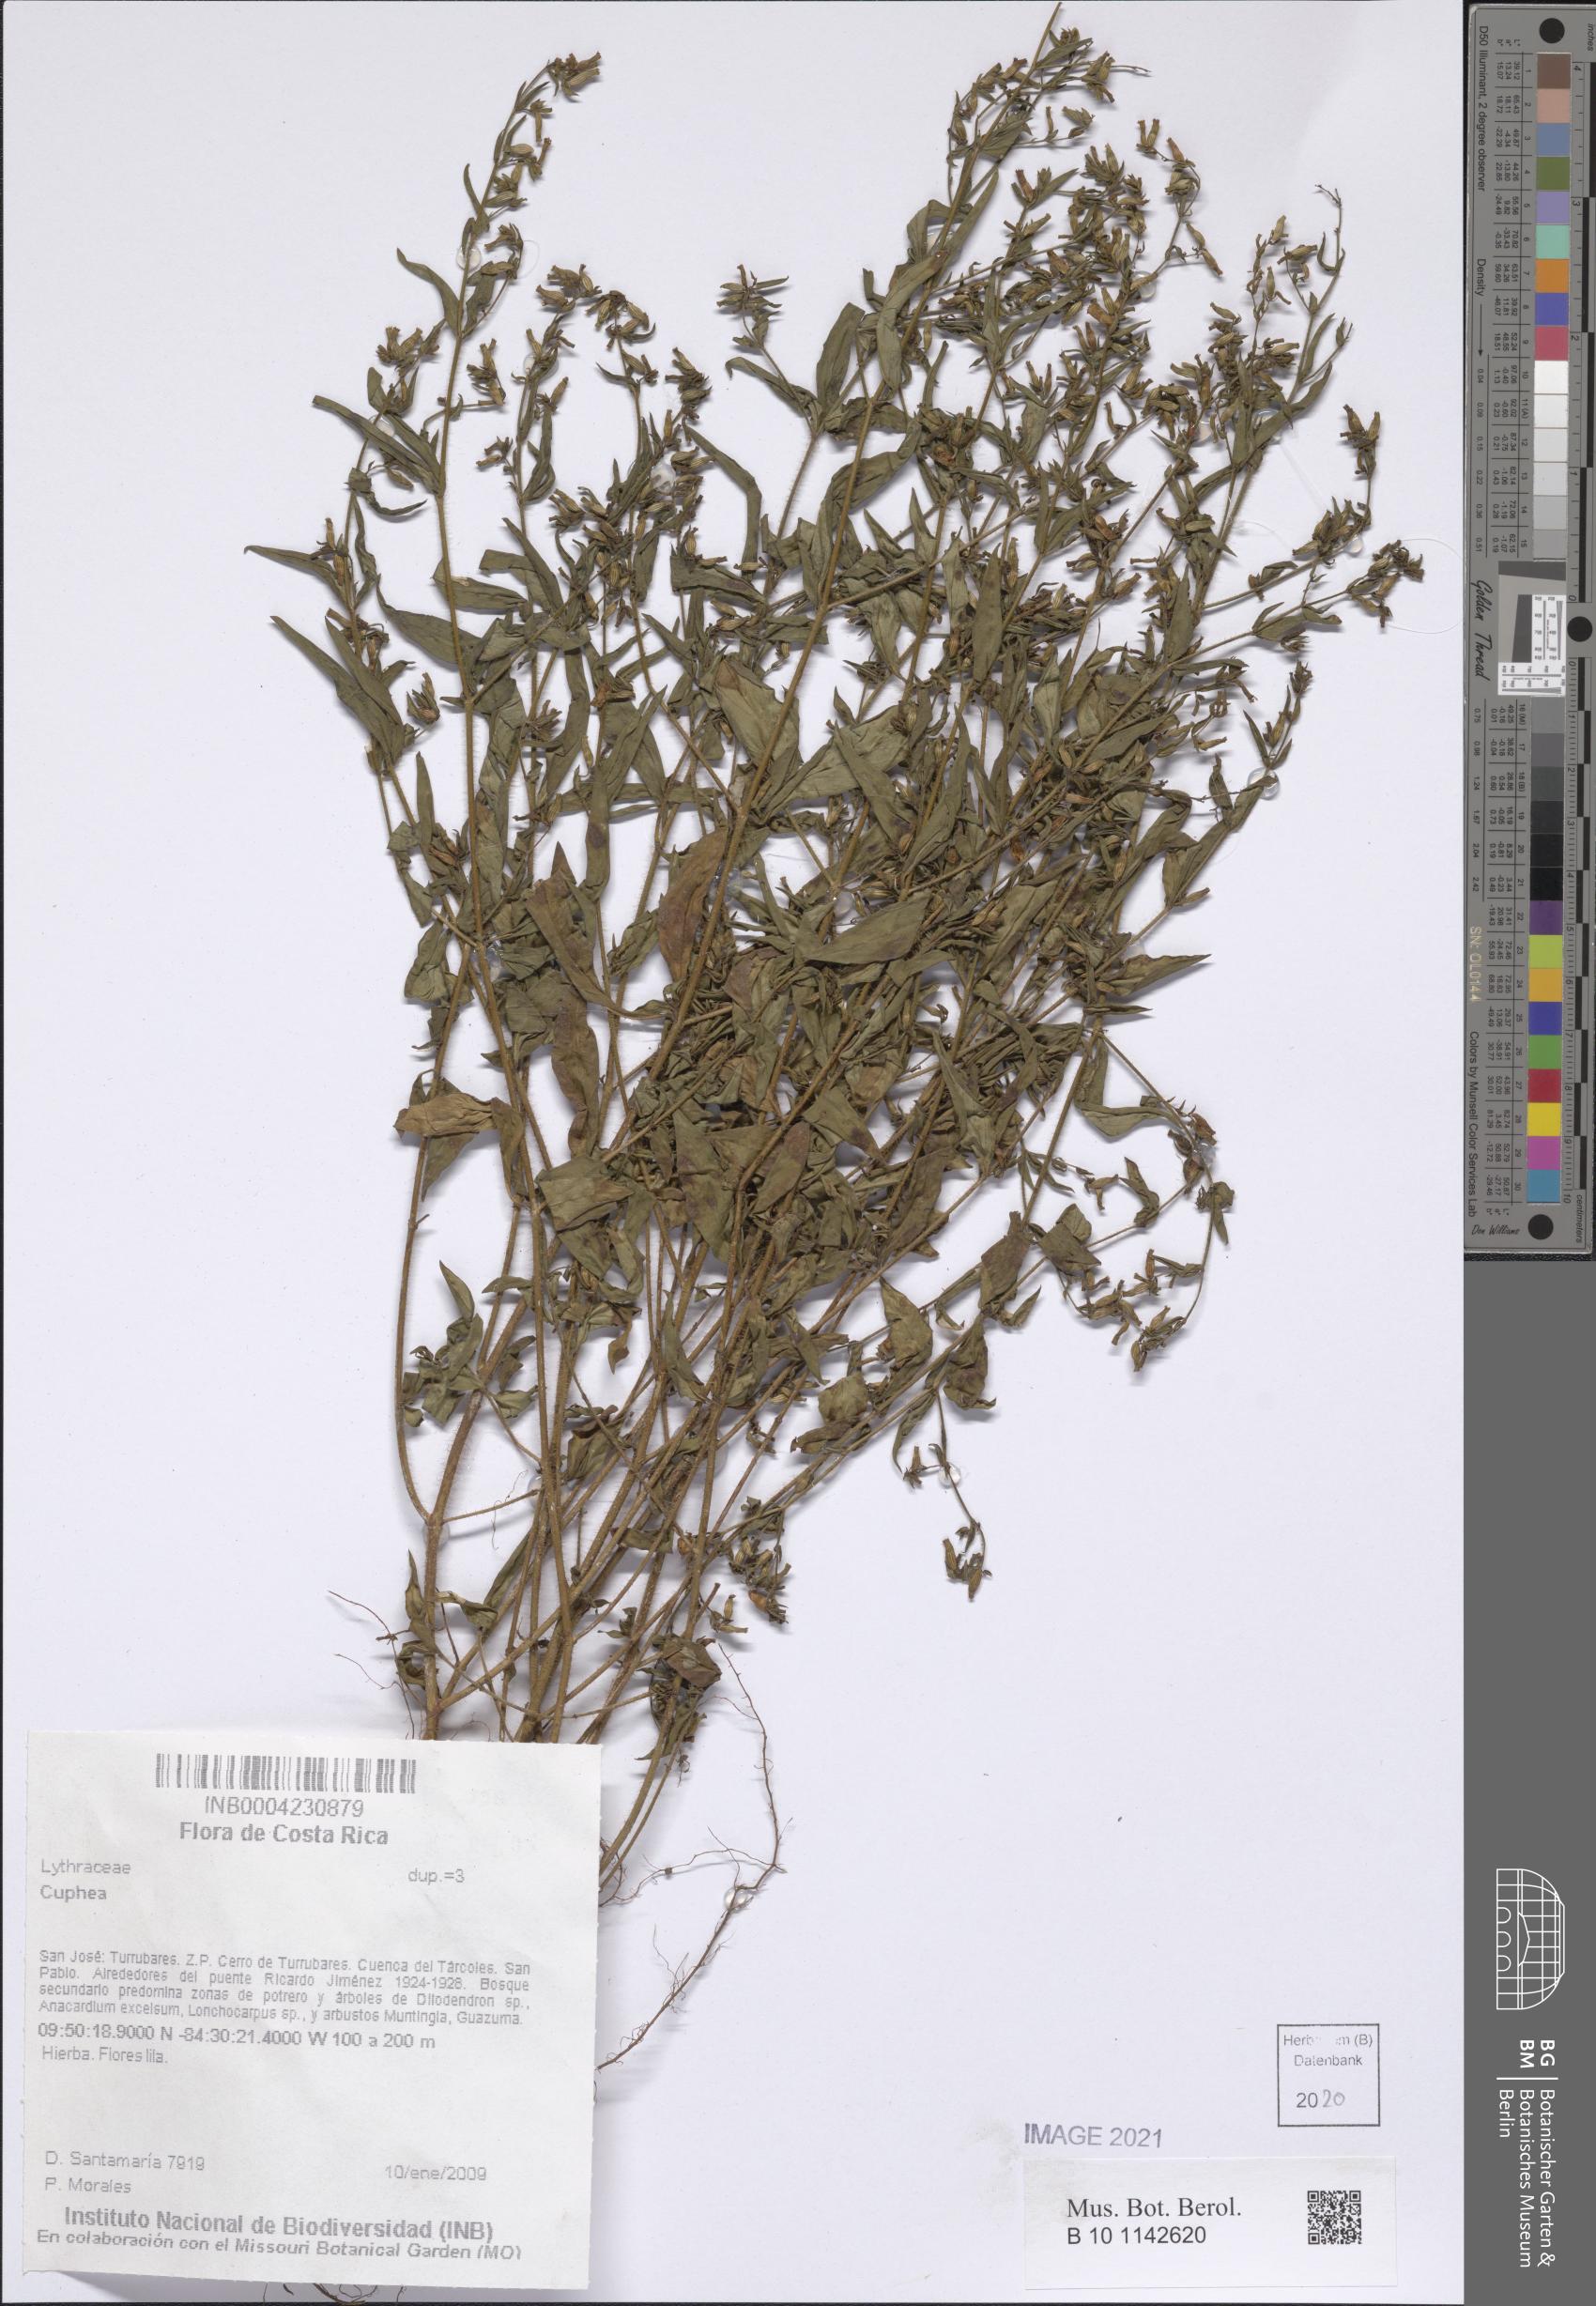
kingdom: Plantae
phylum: Tracheophyta
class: Magnoliopsida
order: Myrtales
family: Lythraceae
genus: Cuphea
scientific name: Cuphea
